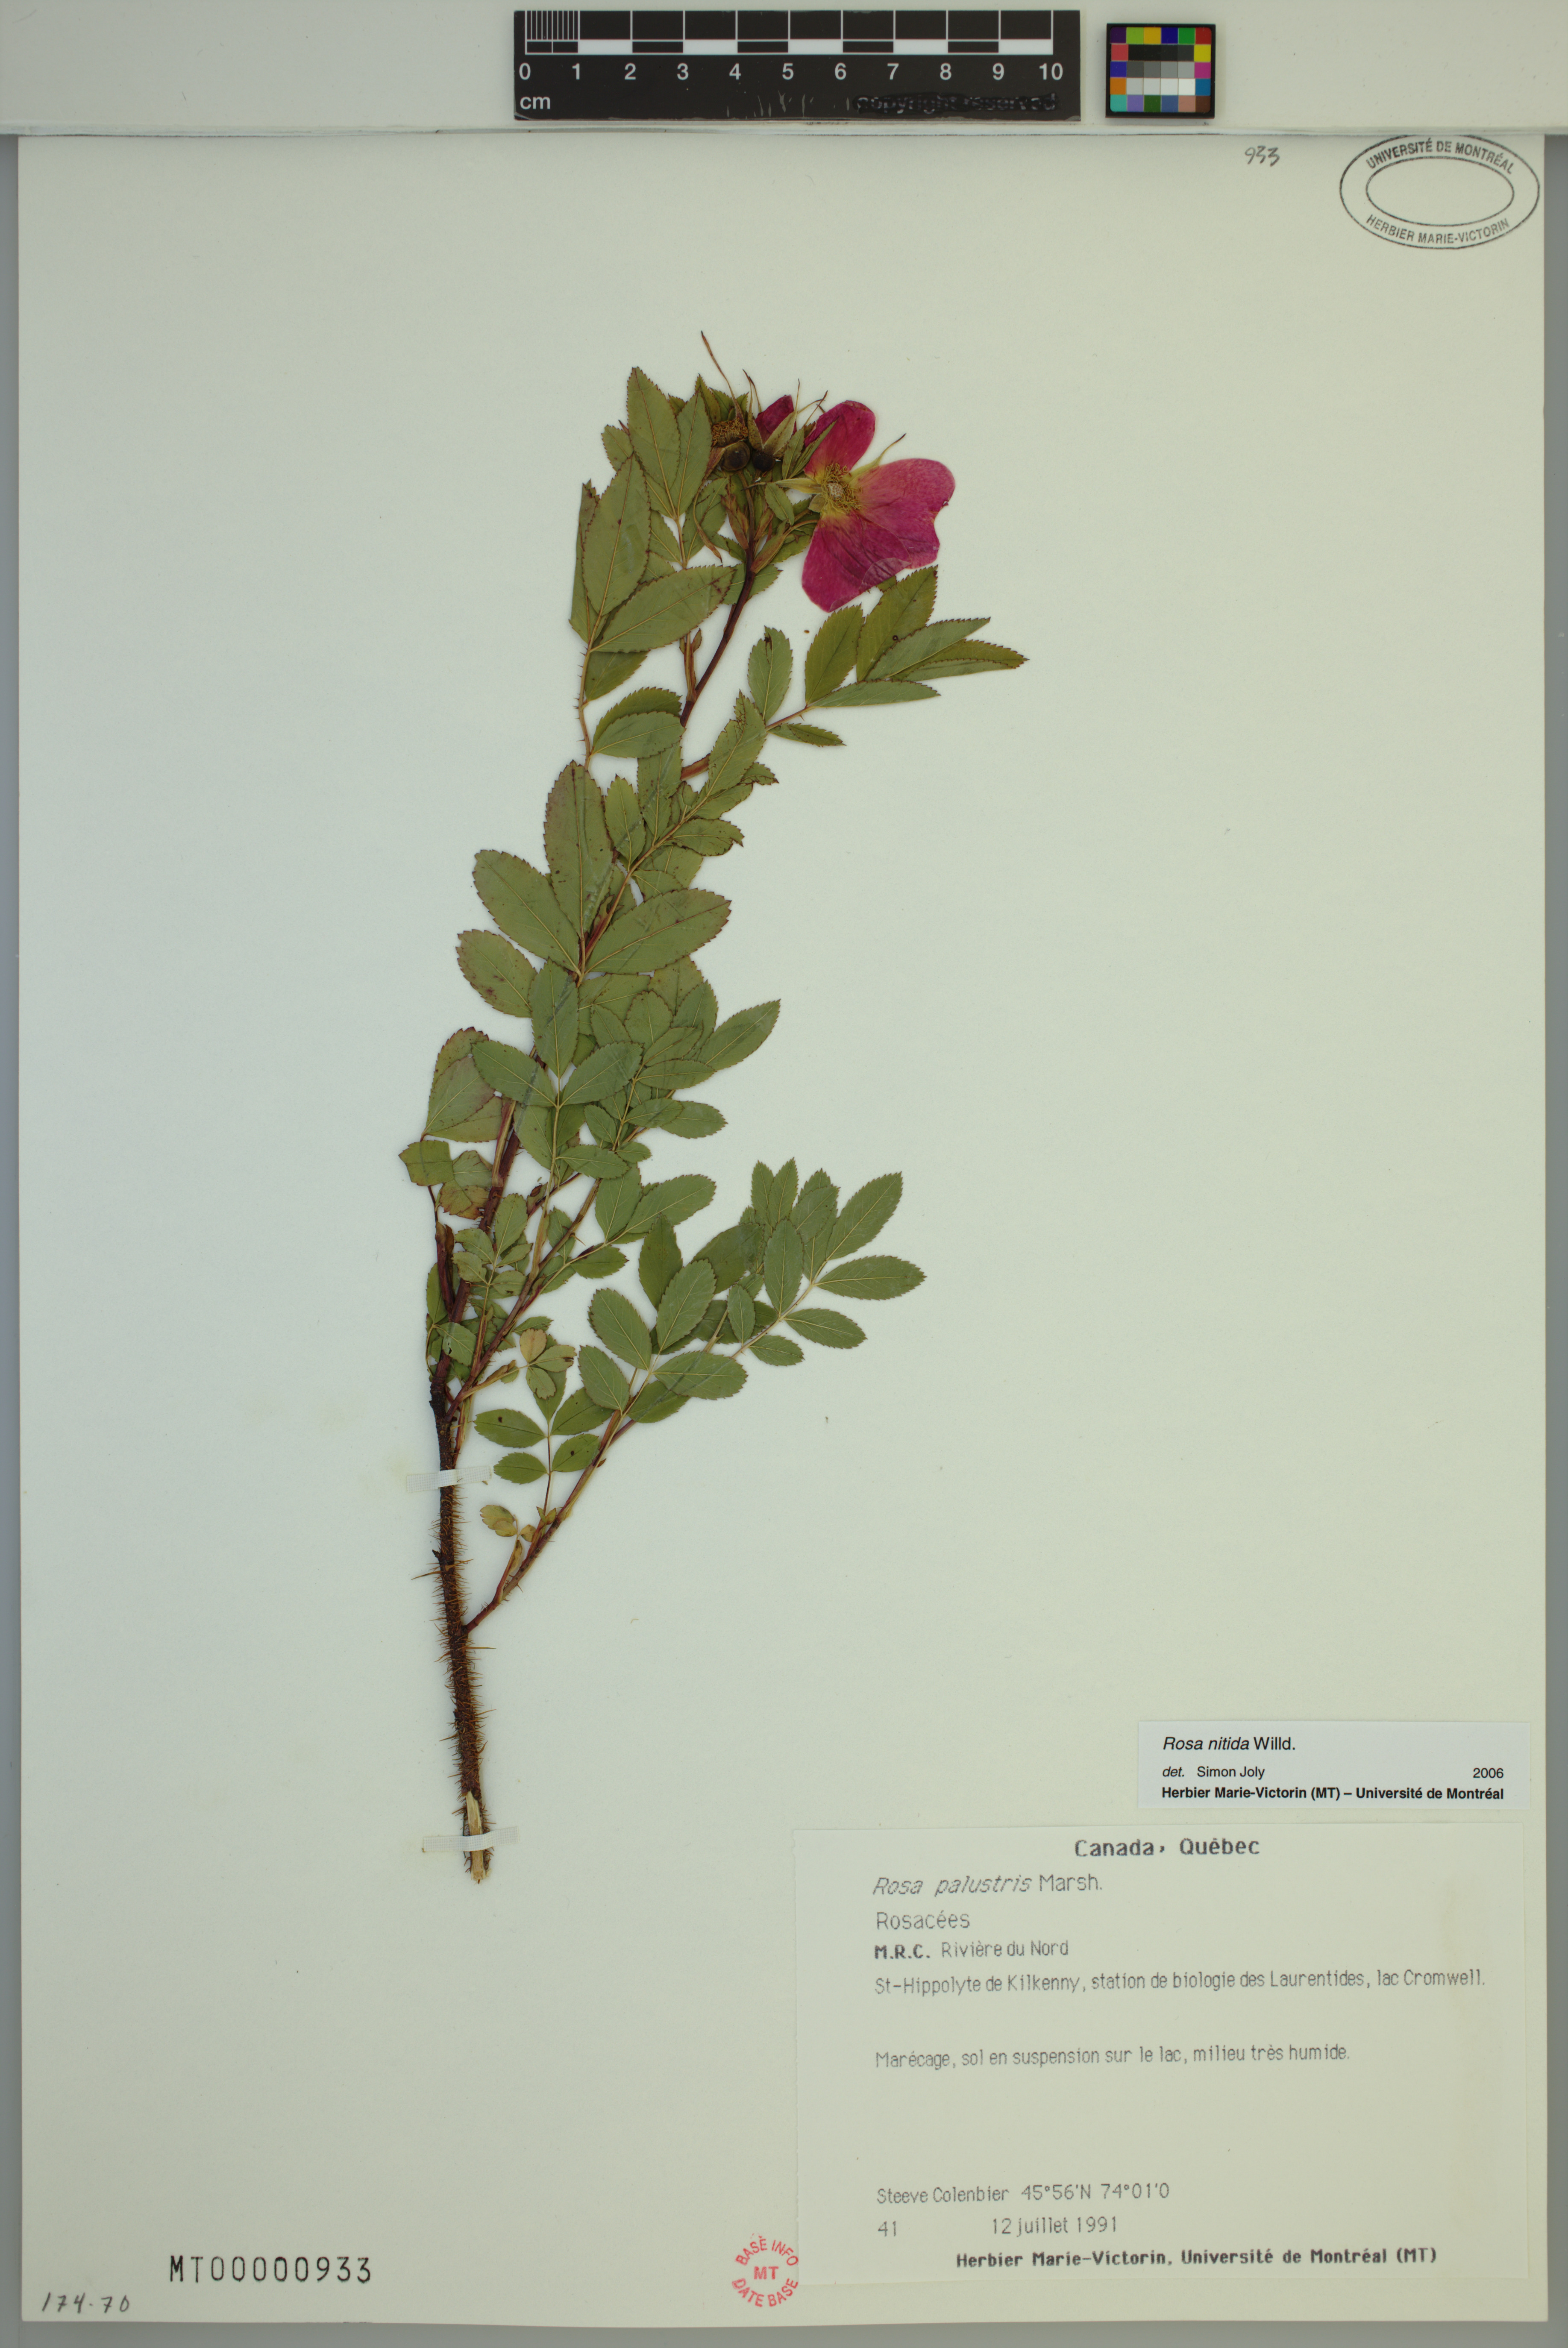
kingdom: Plantae
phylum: Tracheophyta
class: Magnoliopsida
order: Rosales
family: Rosaceae
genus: Rosa
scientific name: Rosa nitida
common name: New england rose
